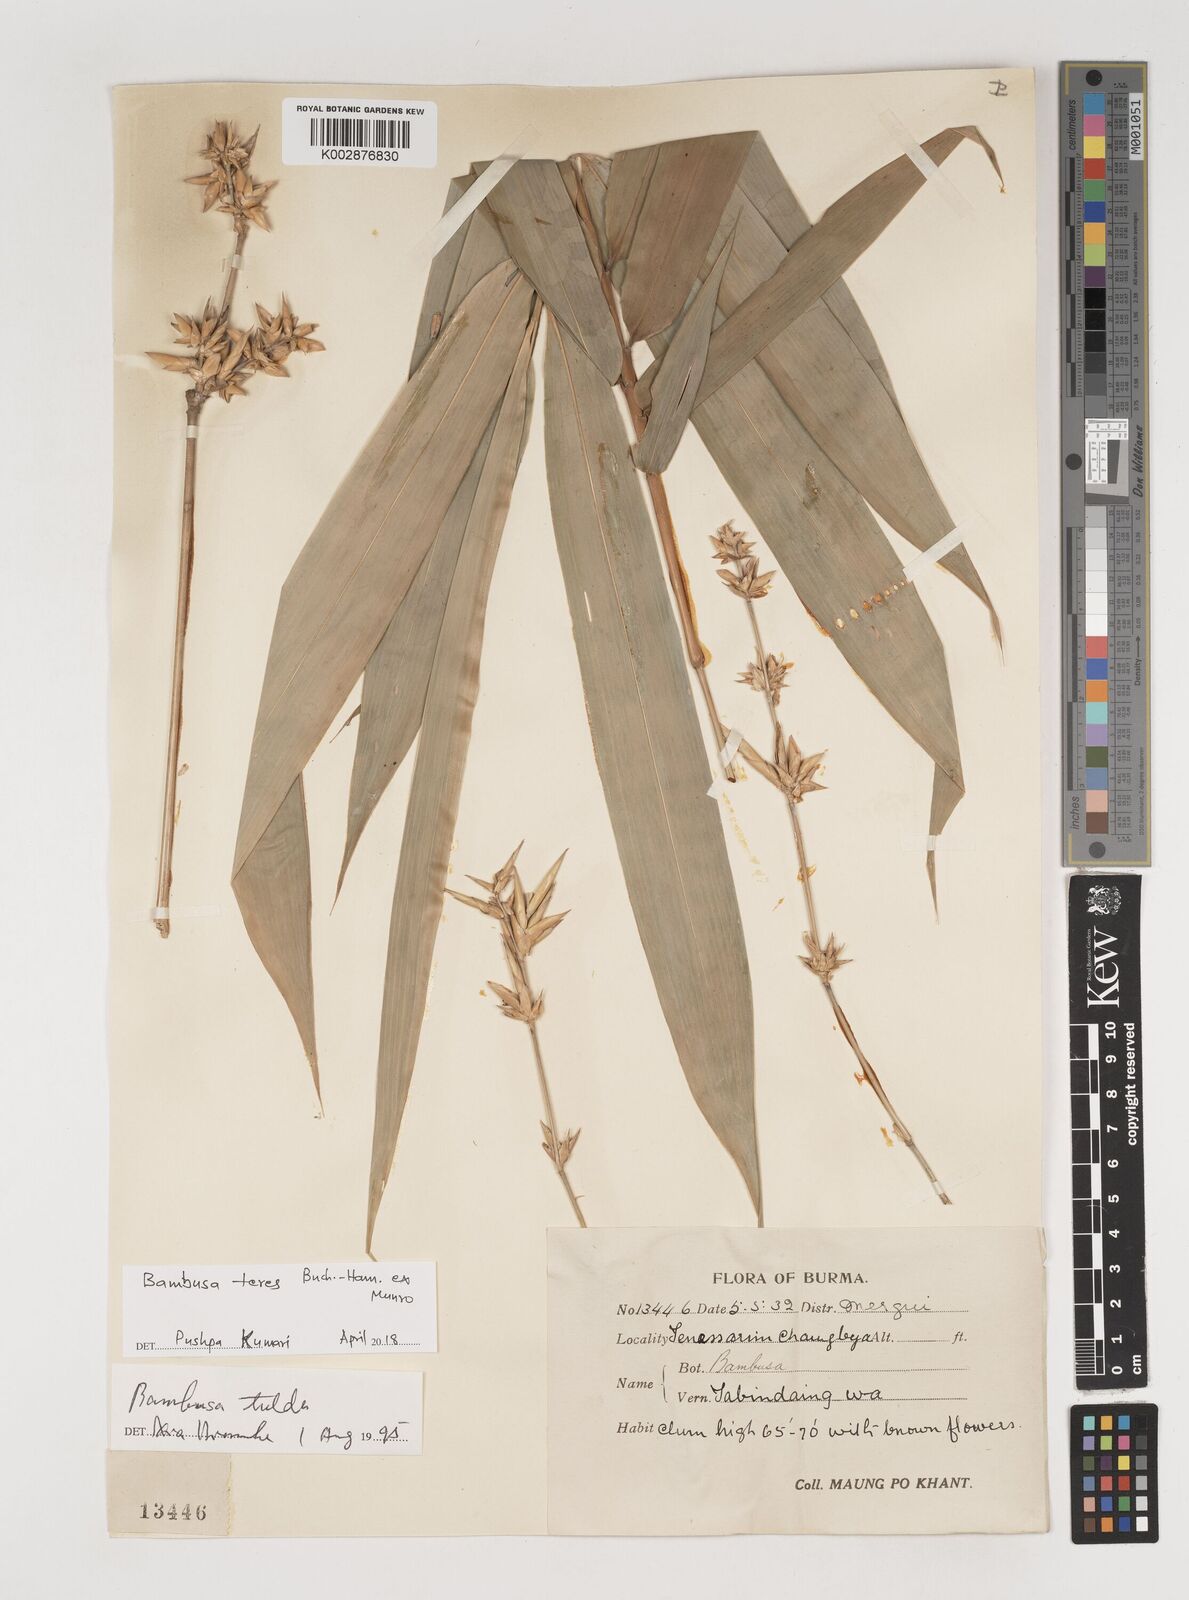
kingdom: Plantae
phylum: Tracheophyta
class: Liliopsida
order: Poales
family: Poaceae
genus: Bambusa
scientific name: Bambusa teres
